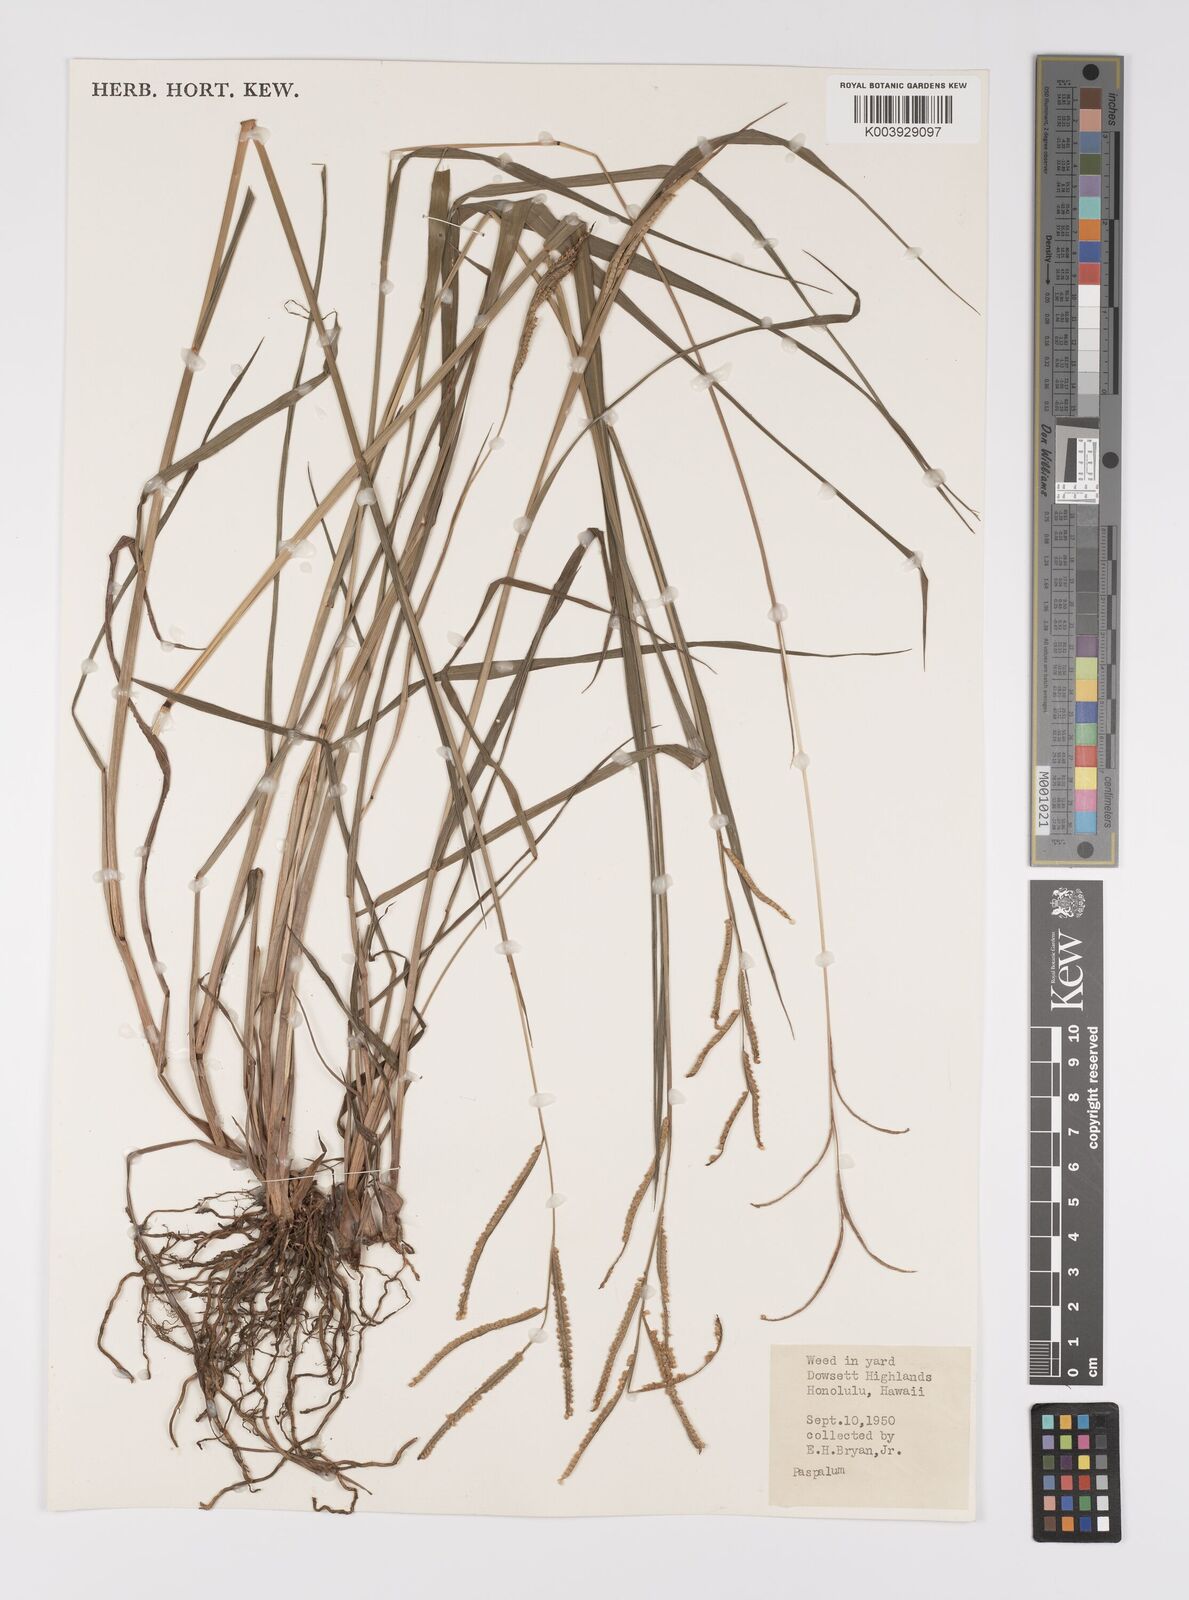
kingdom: Plantae
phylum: Tracheophyta
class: Liliopsida
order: Poales
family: Poaceae
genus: Paspalum
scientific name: Paspalum scrobiculatum
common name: Kodo millet
